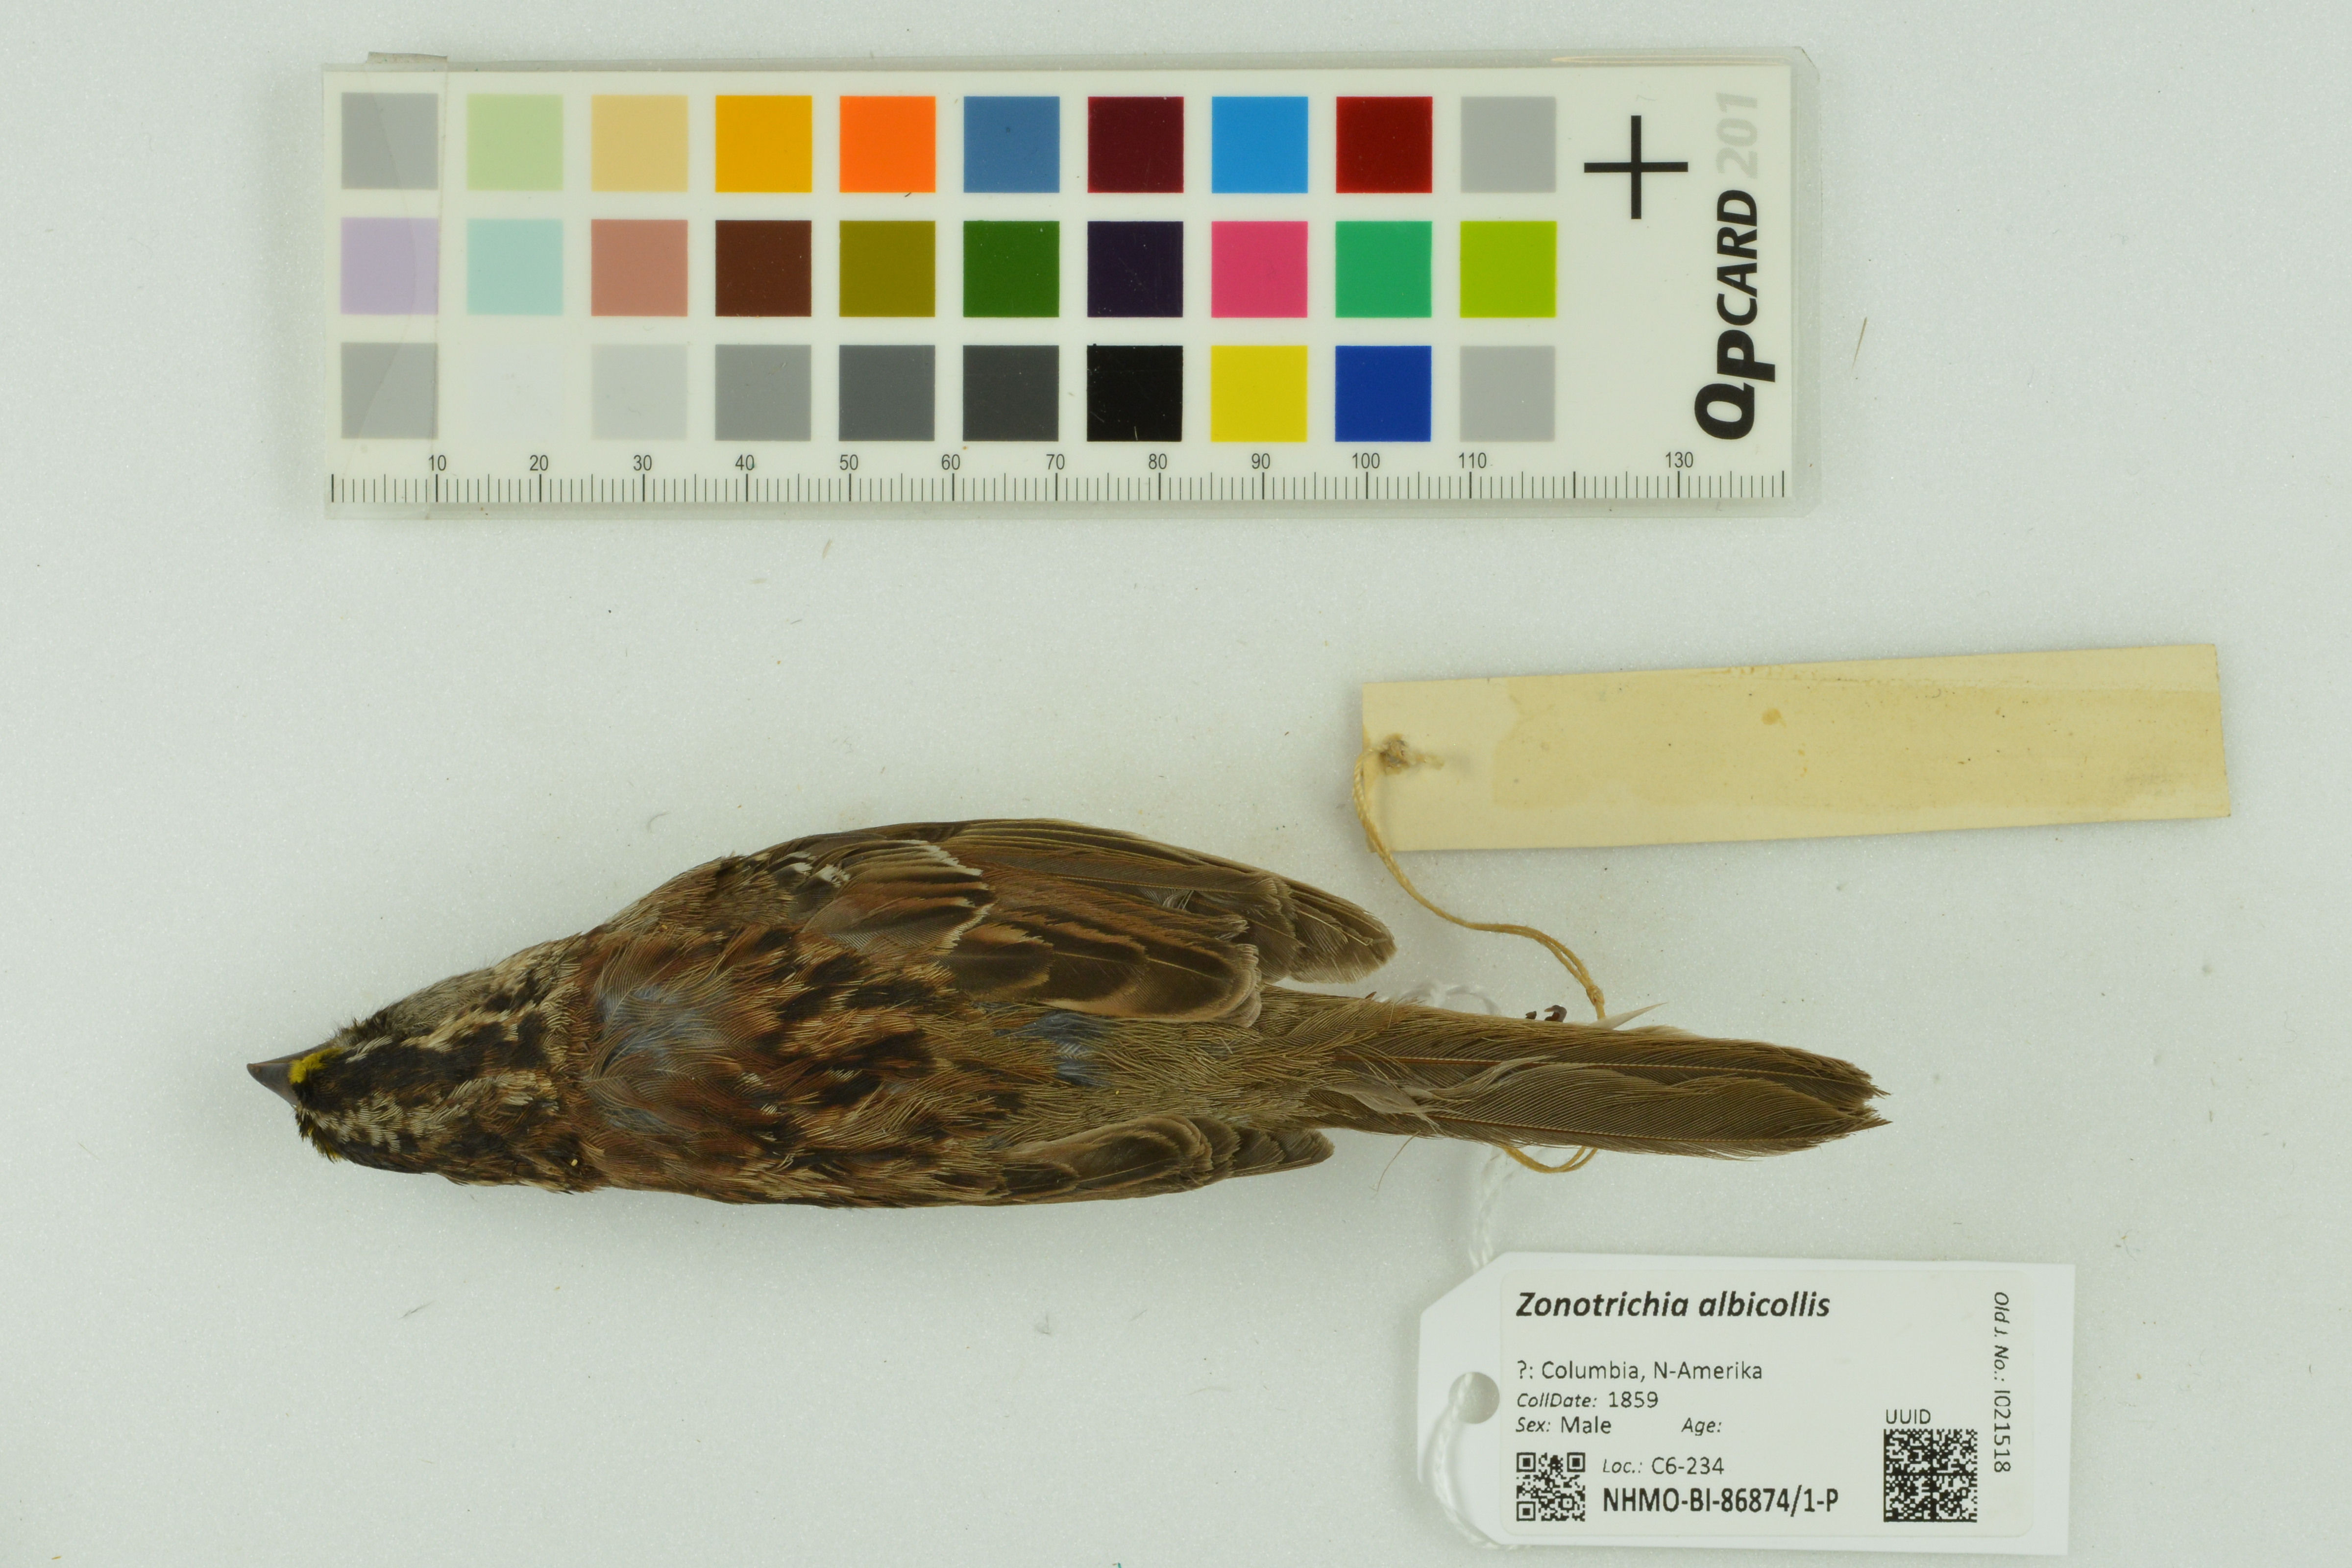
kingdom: Animalia
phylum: Chordata
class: Aves
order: Passeriformes
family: Passerellidae
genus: Zonotrichia
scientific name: Zonotrichia albicollis
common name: White-throated sparrow
